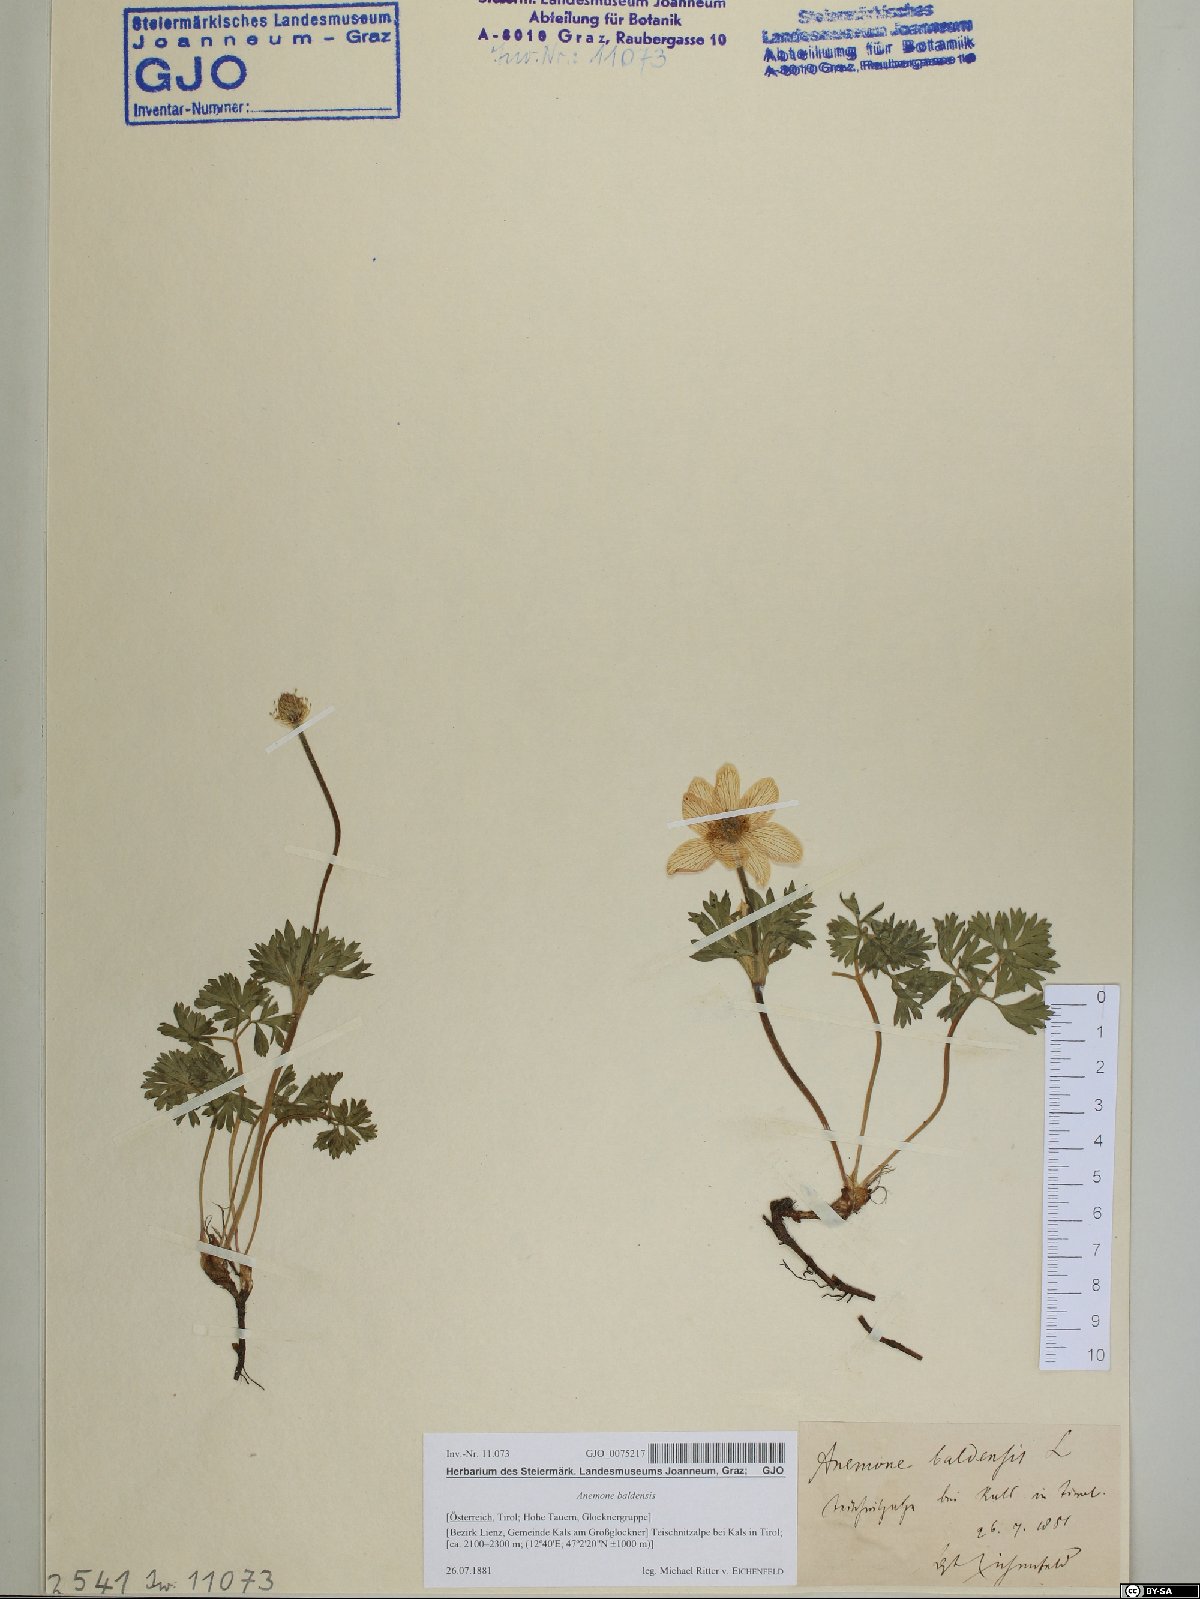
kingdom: Plantae
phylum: Tracheophyta
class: Magnoliopsida
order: Ranunculales
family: Ranunculaceae
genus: Anemone
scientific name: Anemone baldensis
